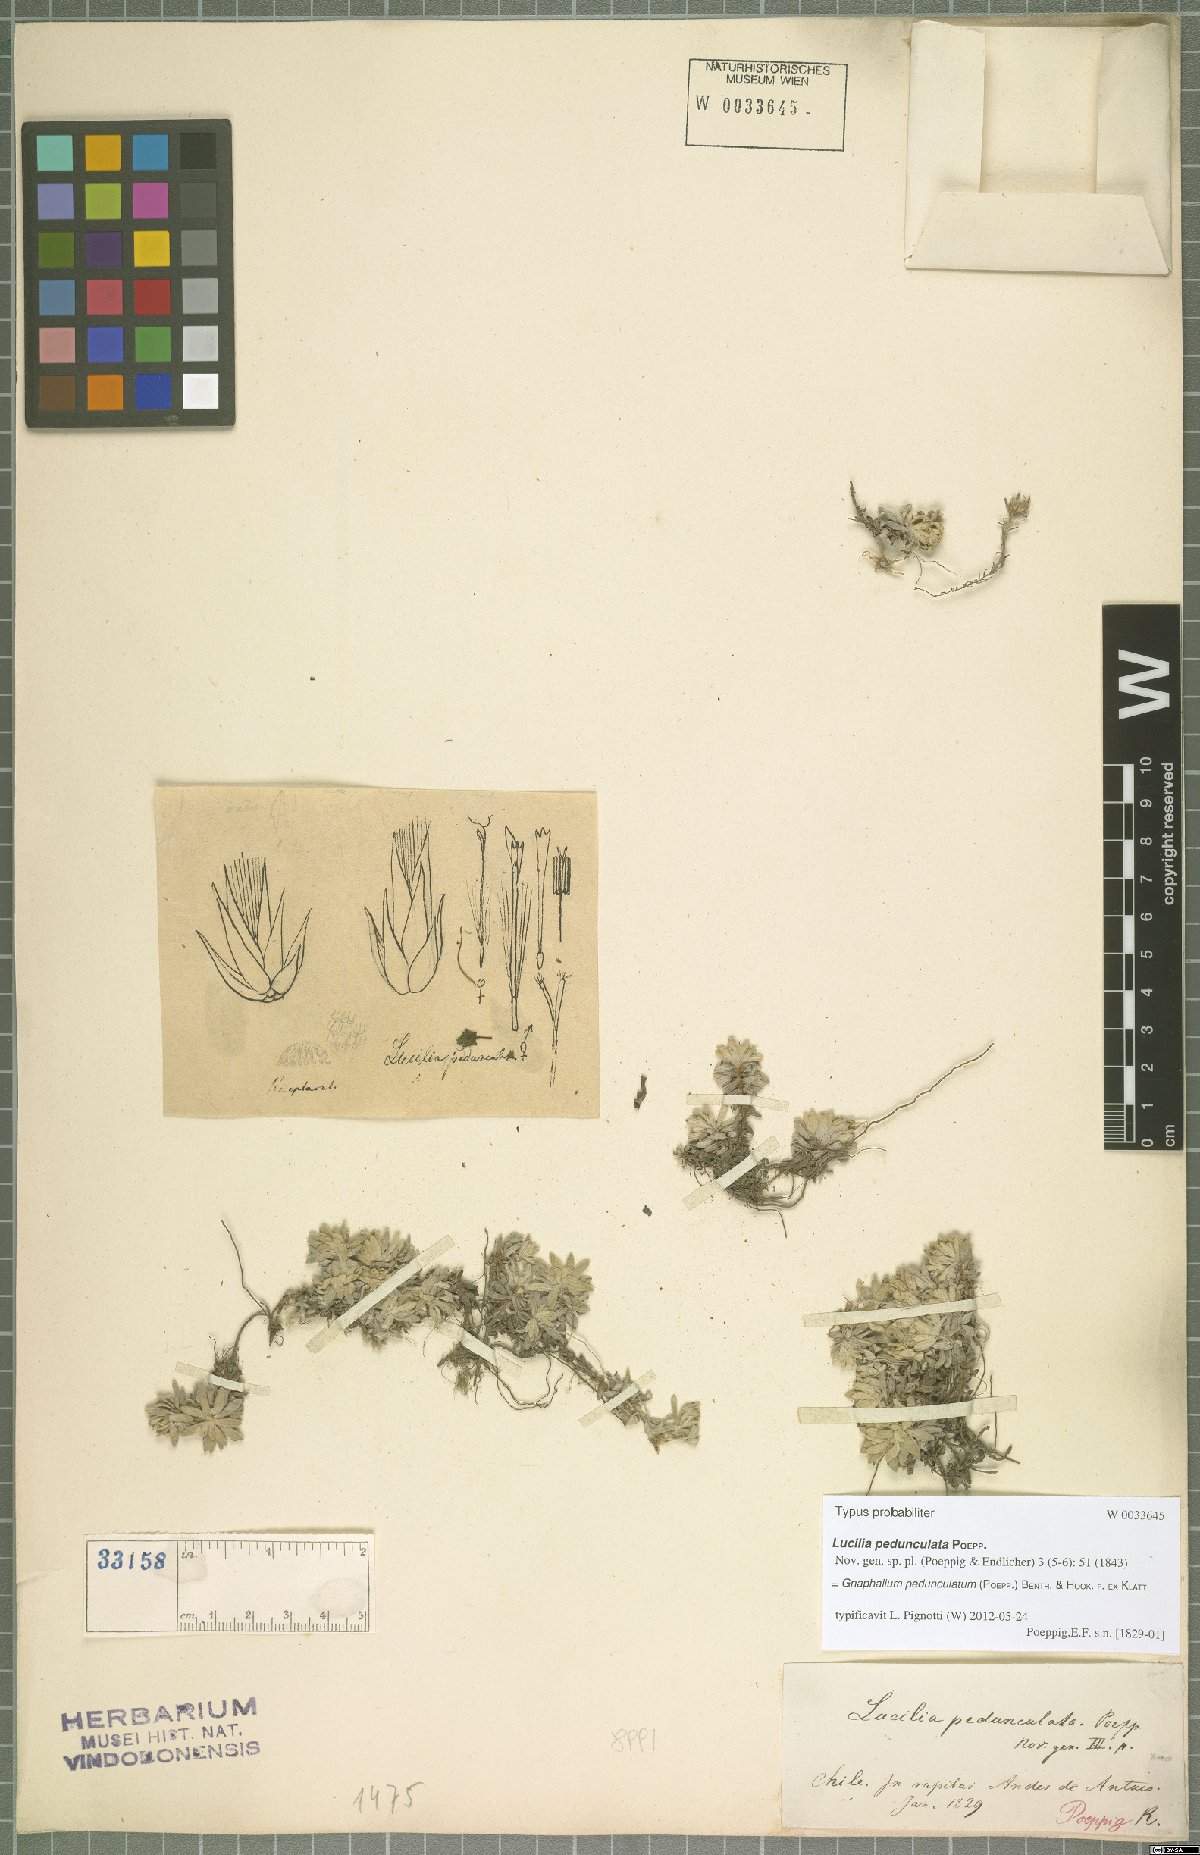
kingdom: Plantae
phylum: Tracheophyta
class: Magnoliopsida
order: Asterales
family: Asteraceae
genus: Lucilia
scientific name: Lucilia pedunculata
